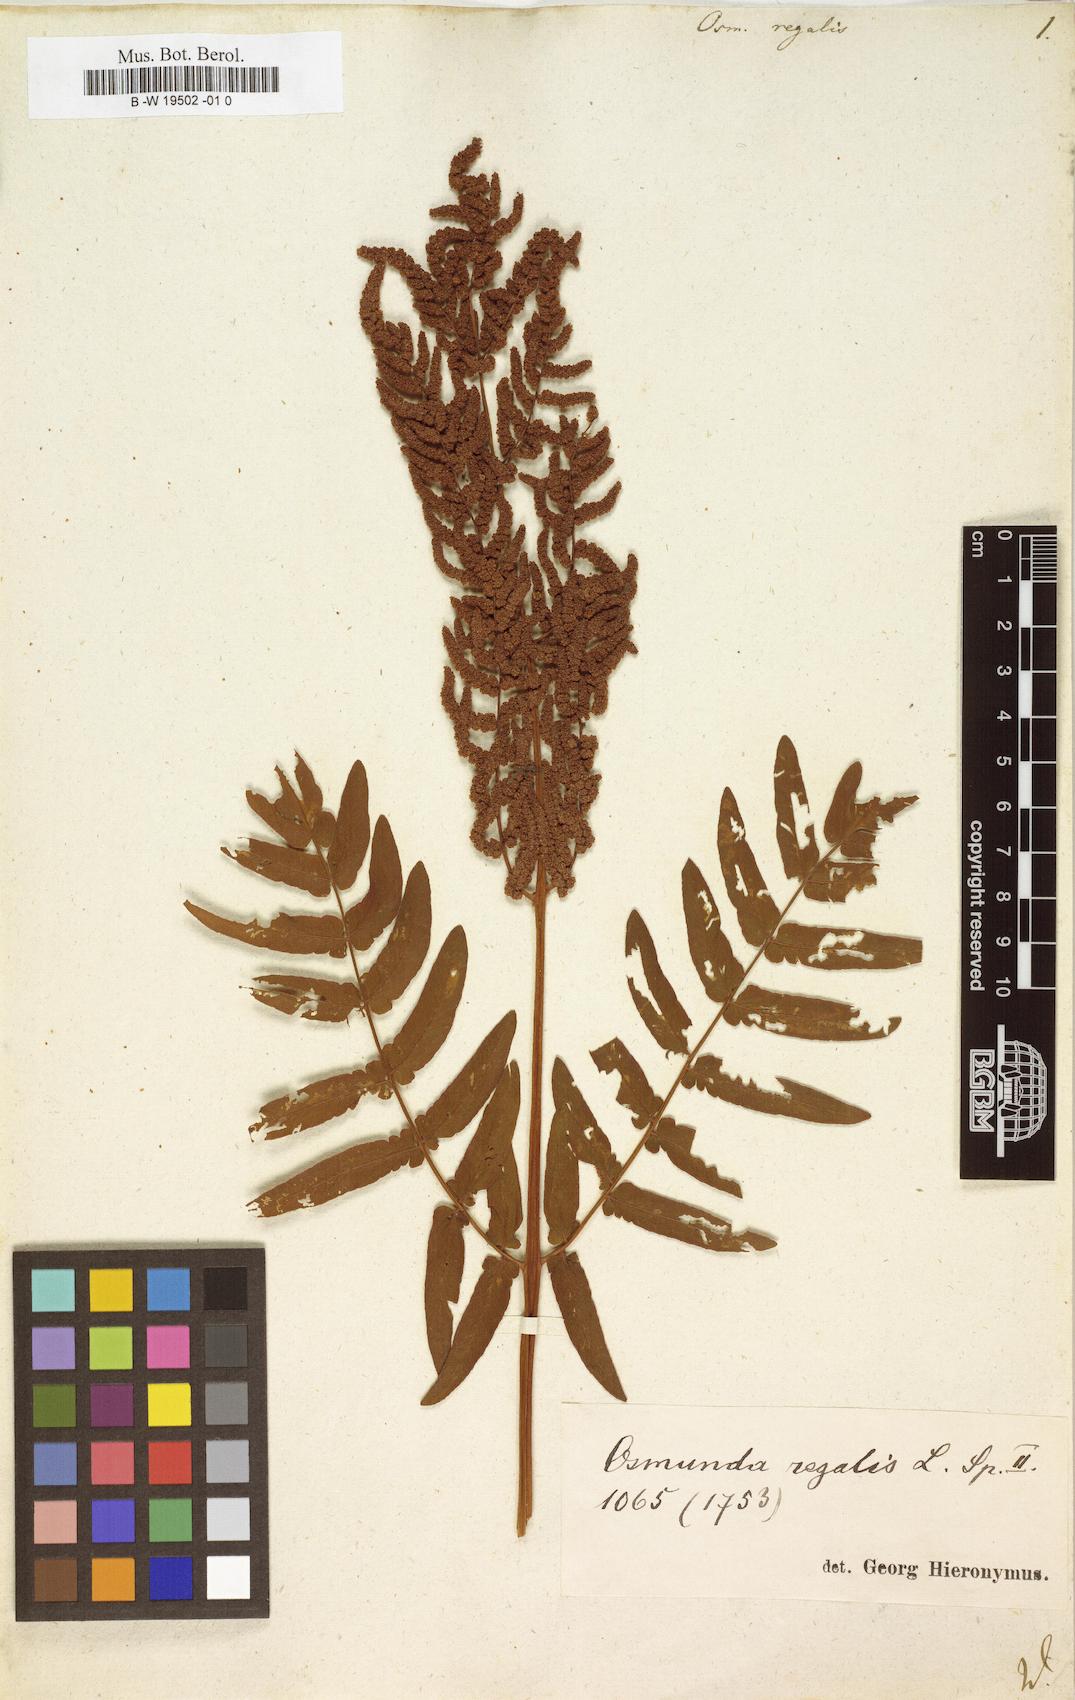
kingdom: Plantae
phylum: Tracheophyta
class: Polypodiopsida
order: Osmundales
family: Osmundaceae
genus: Osmunda
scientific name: Osmunda regalis
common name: Royal fern
